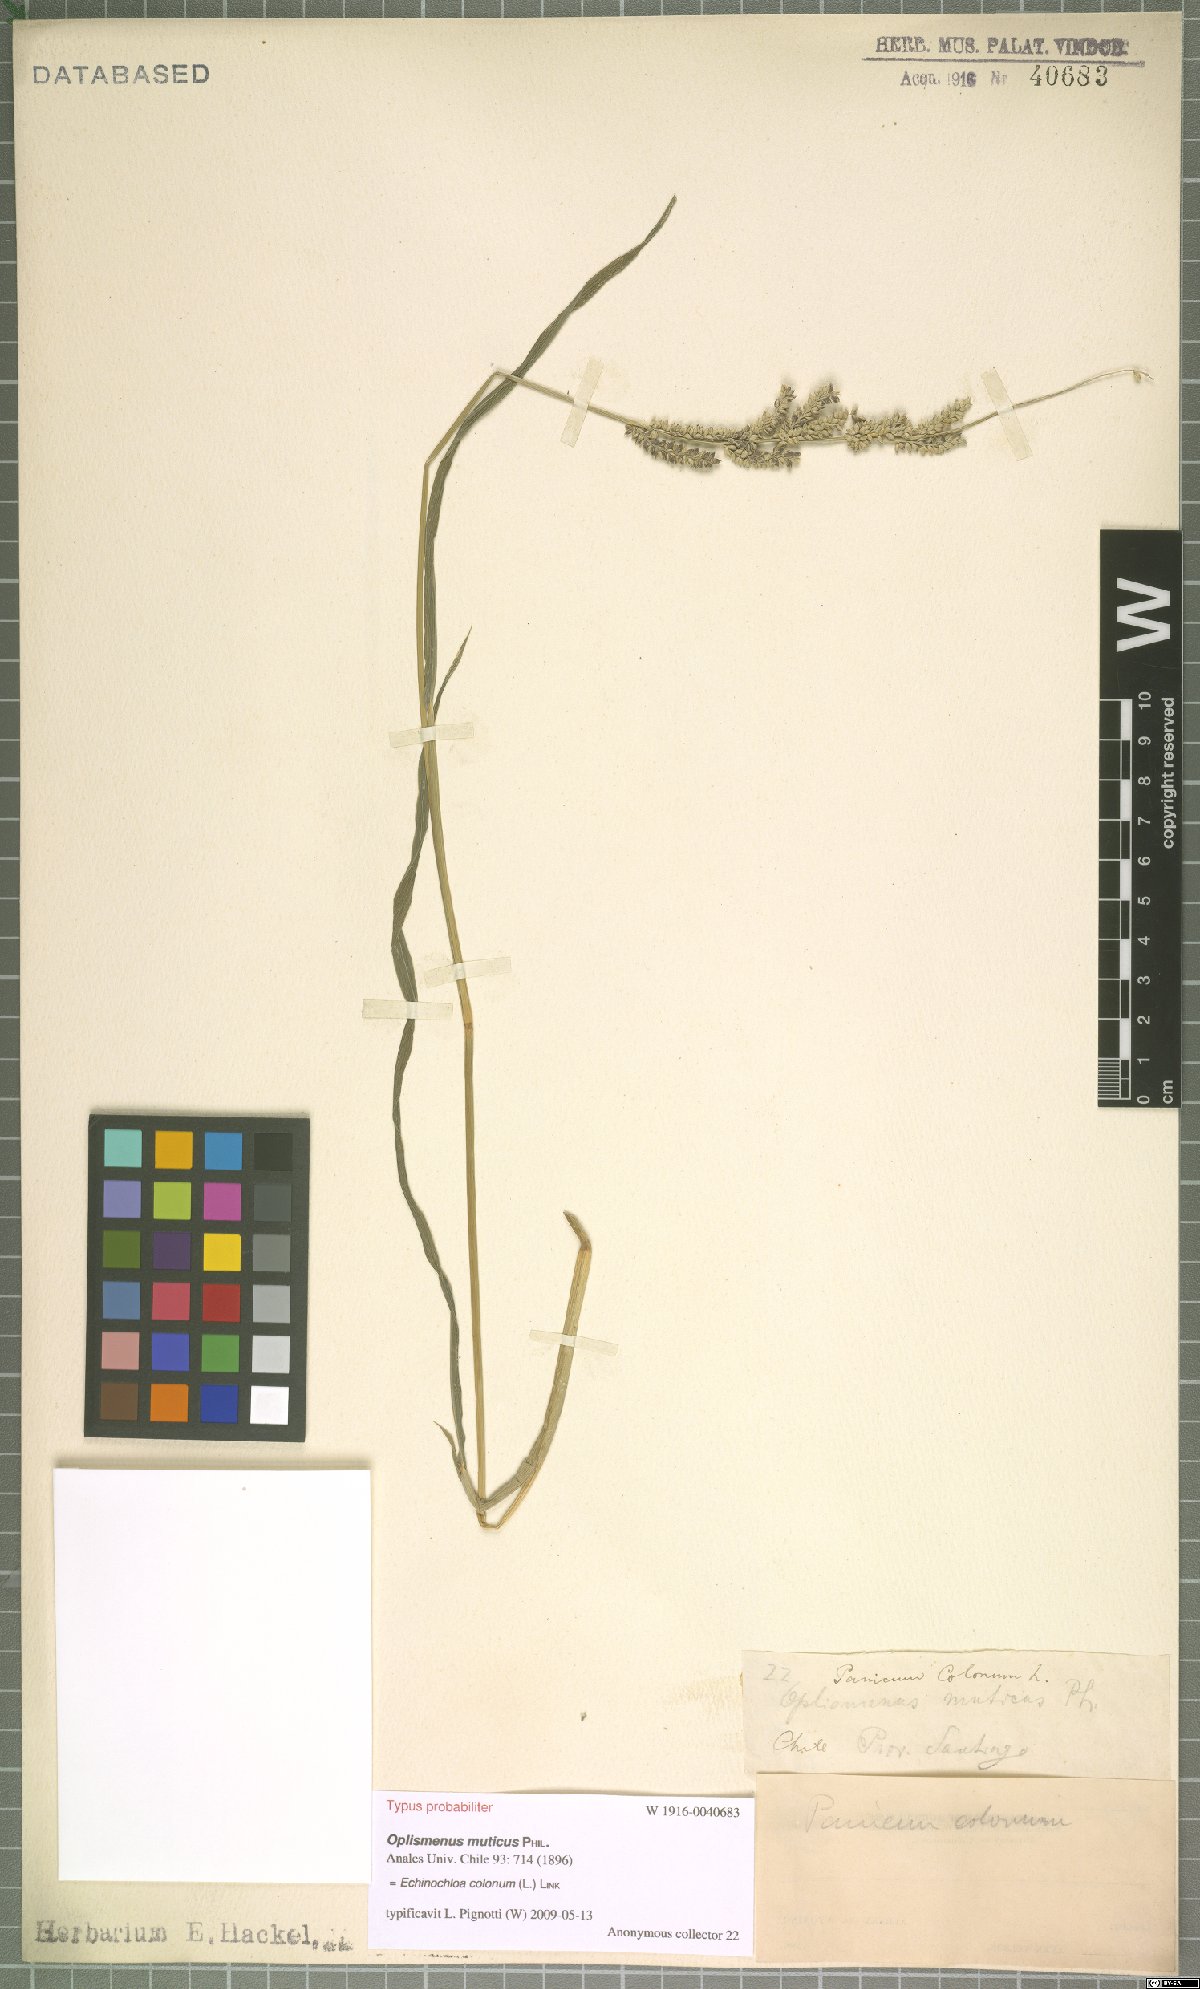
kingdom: Plantae
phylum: Tracheophyta
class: Liliopsida
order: Poales
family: Poaceae
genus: Echinochloa
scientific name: Echinochloa colonum
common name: Jungle rice
